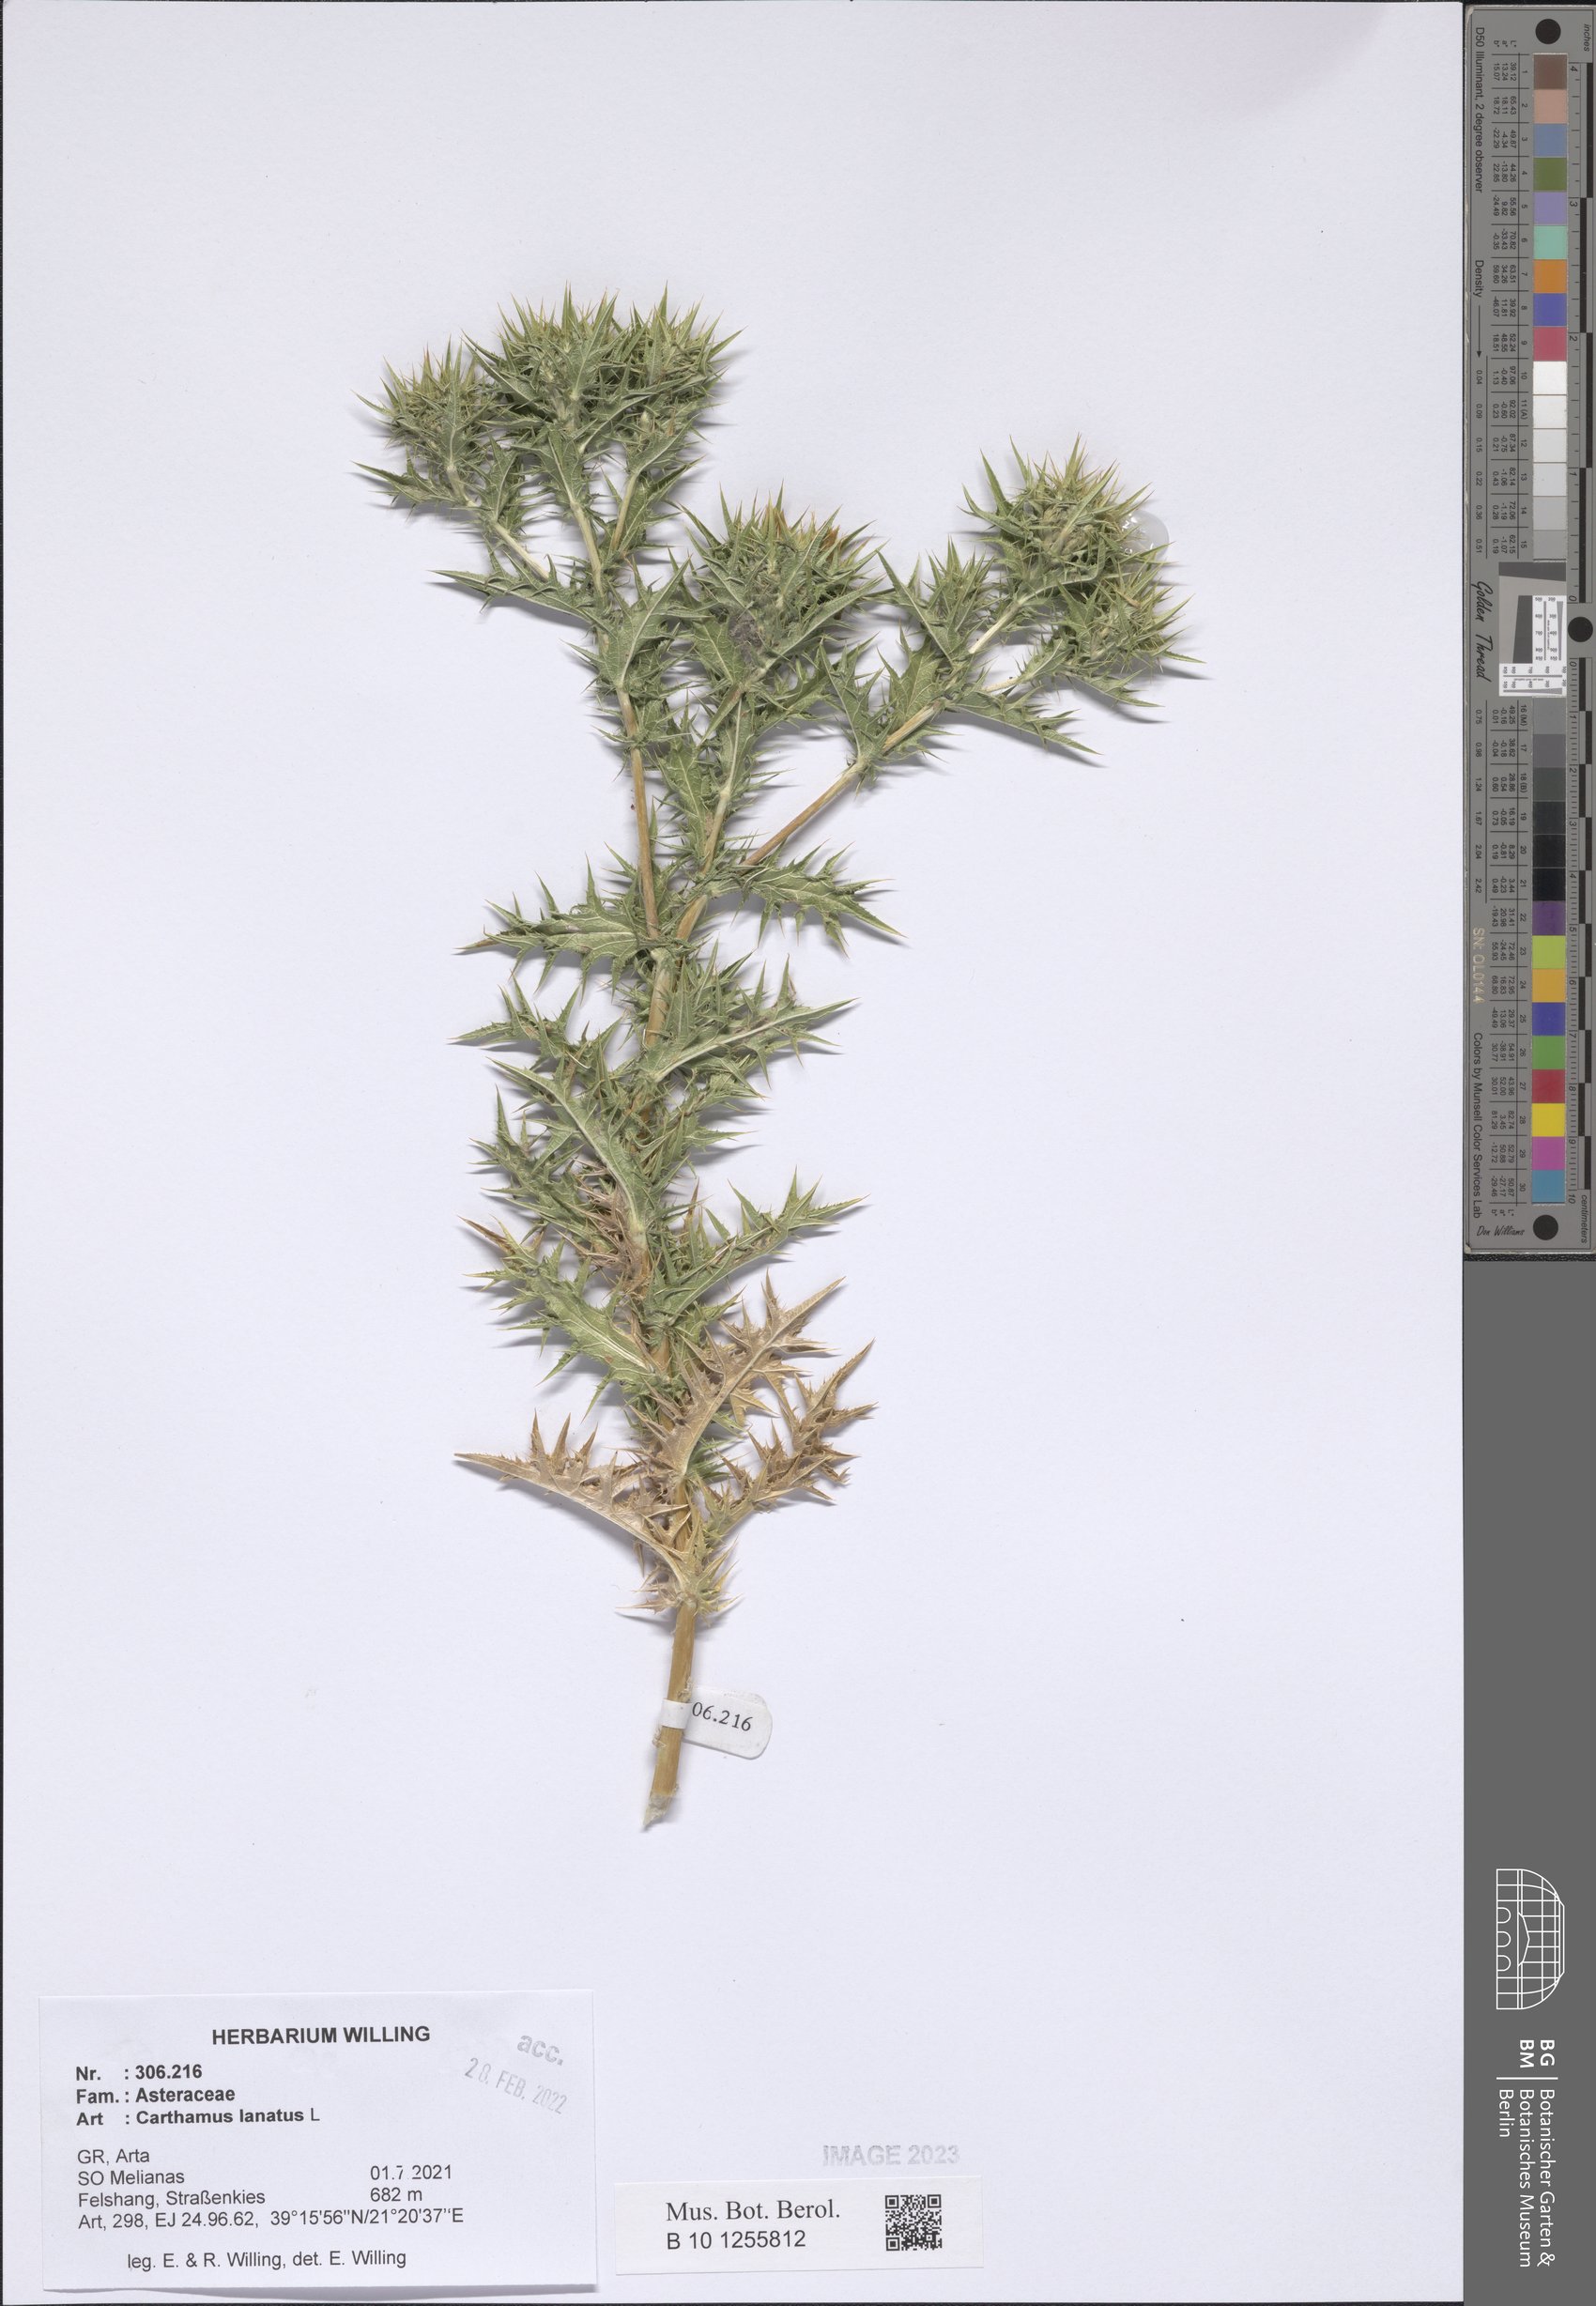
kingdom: Plantae
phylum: Tracheophyta
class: Magnoliopsida
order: Asterales
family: Asteraceae
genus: Carthamus
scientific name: Carthamus lanatus
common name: Downy safflower
